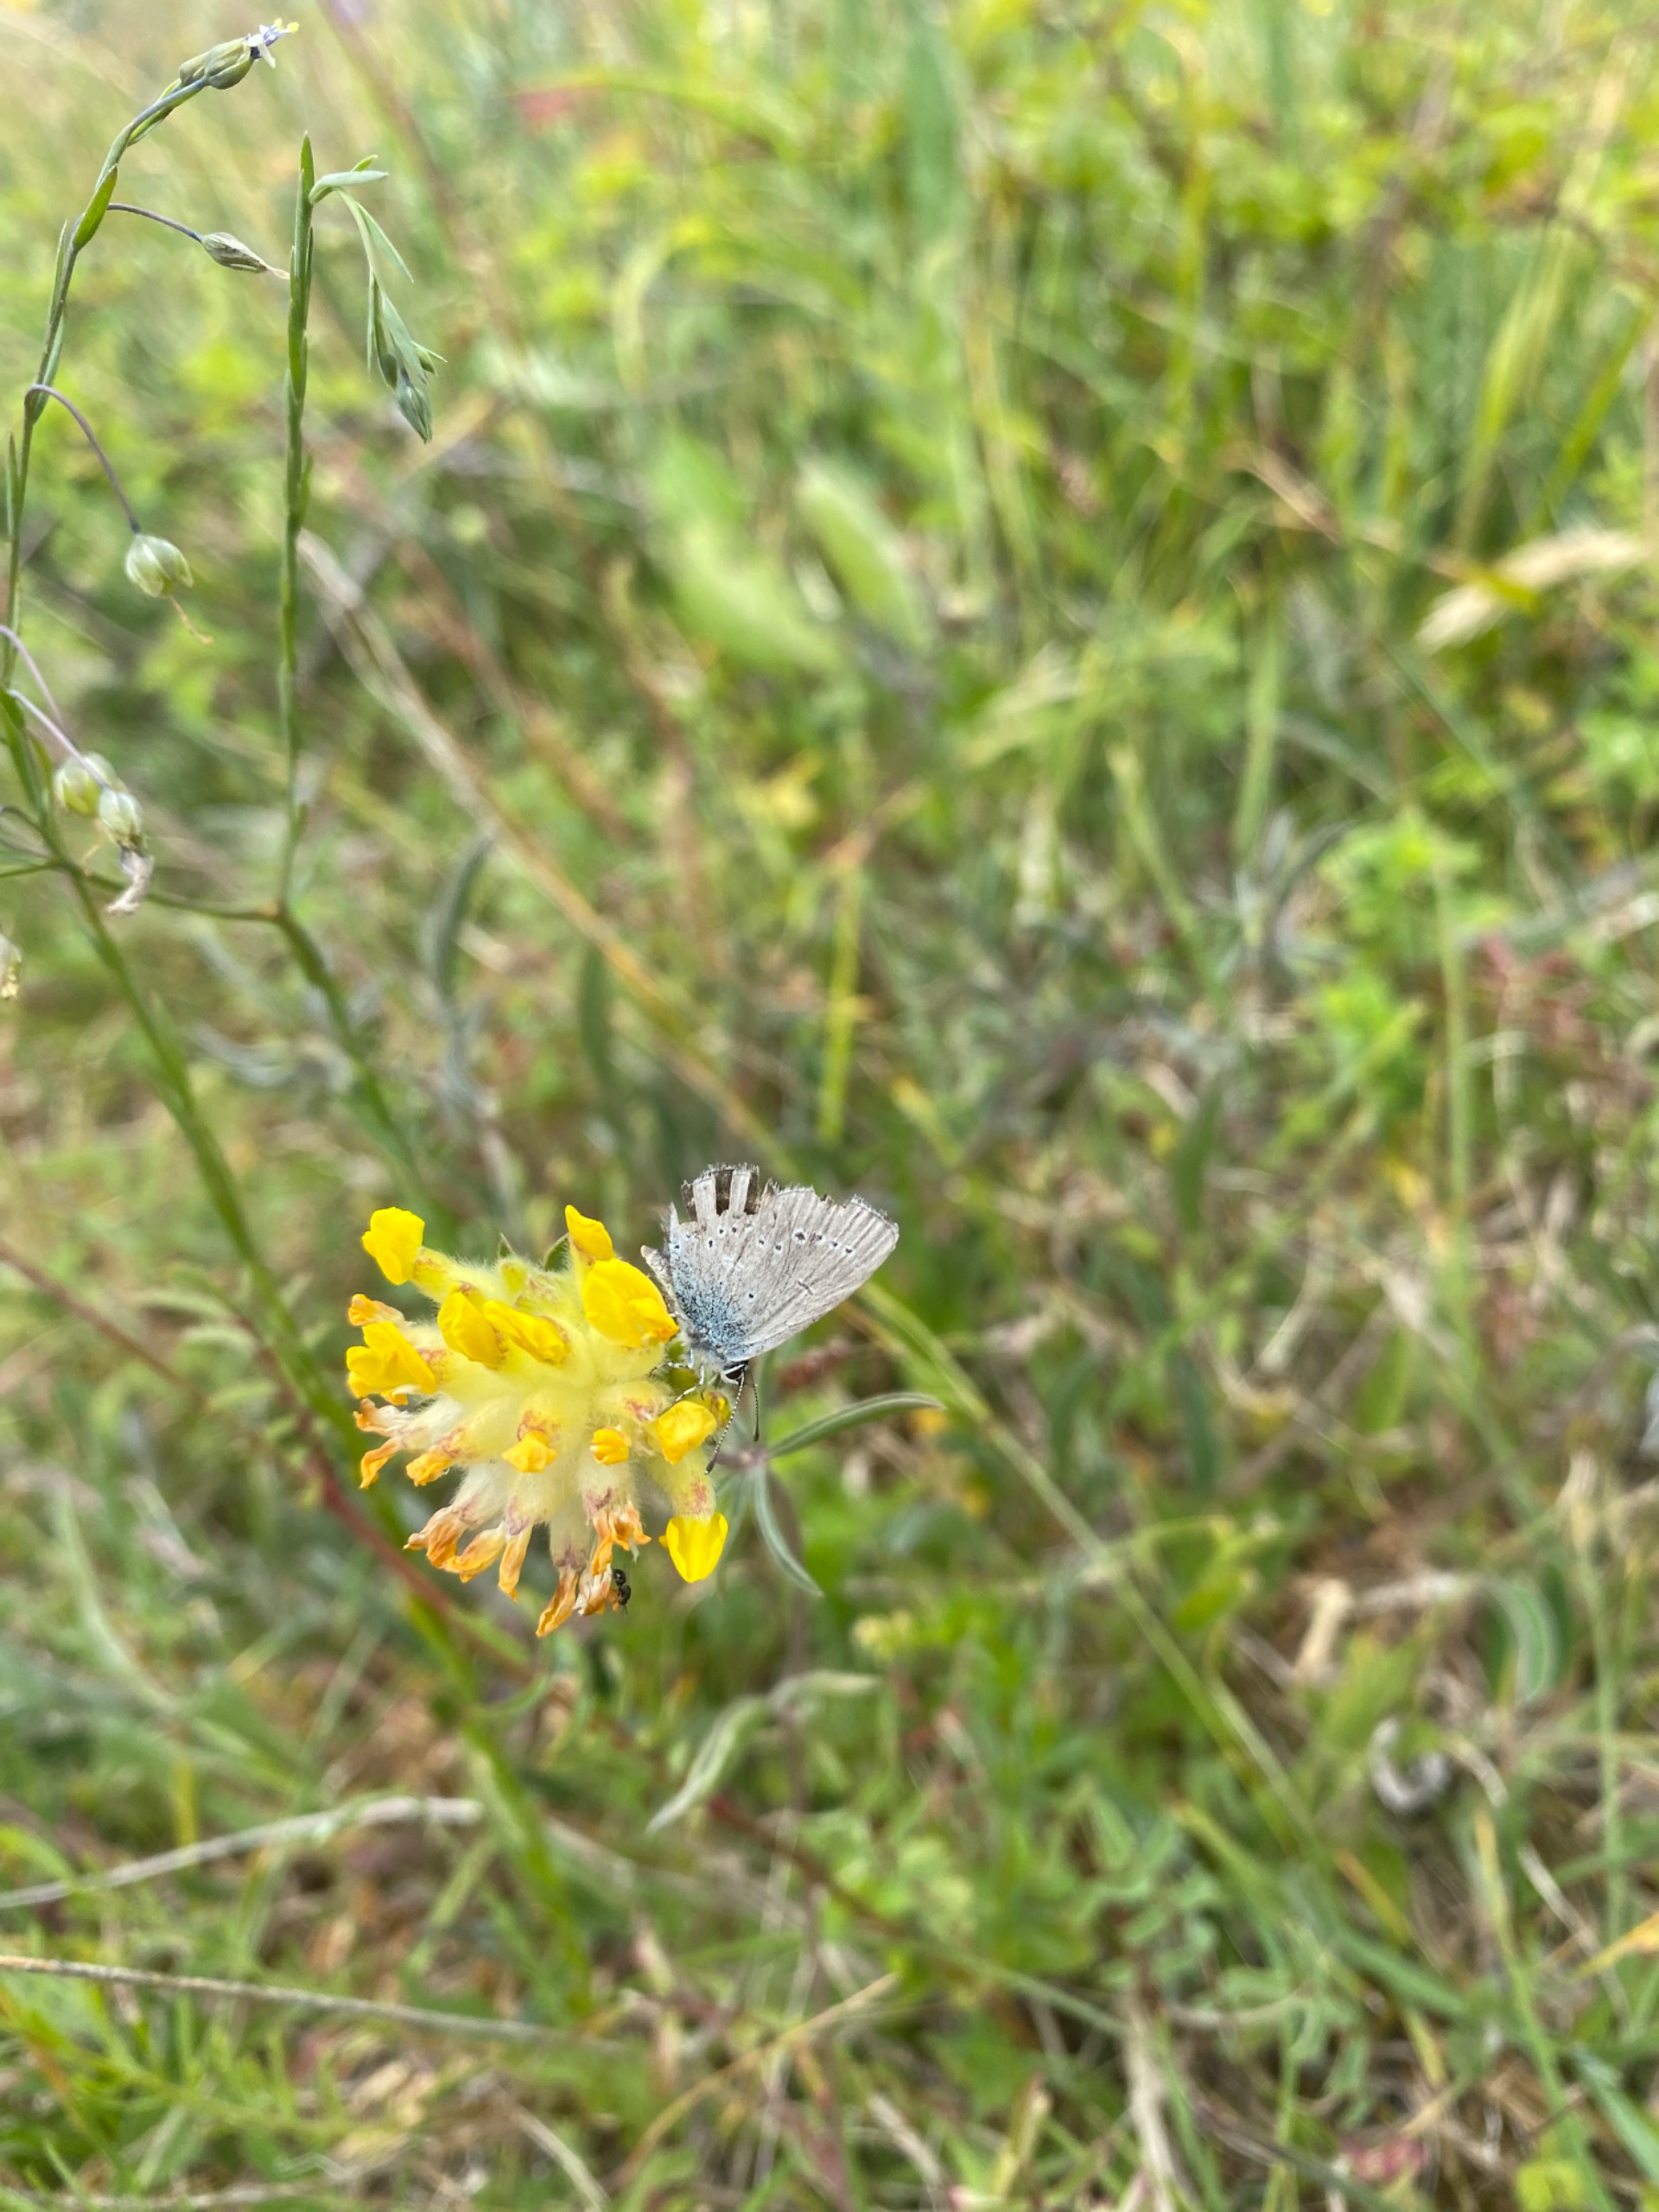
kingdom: Animalia
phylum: Arthropoda
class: Insecta
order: Lepidoptera
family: Lycaenidae
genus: Cupido
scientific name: Cupido minimus
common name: Dværgblåfugl
